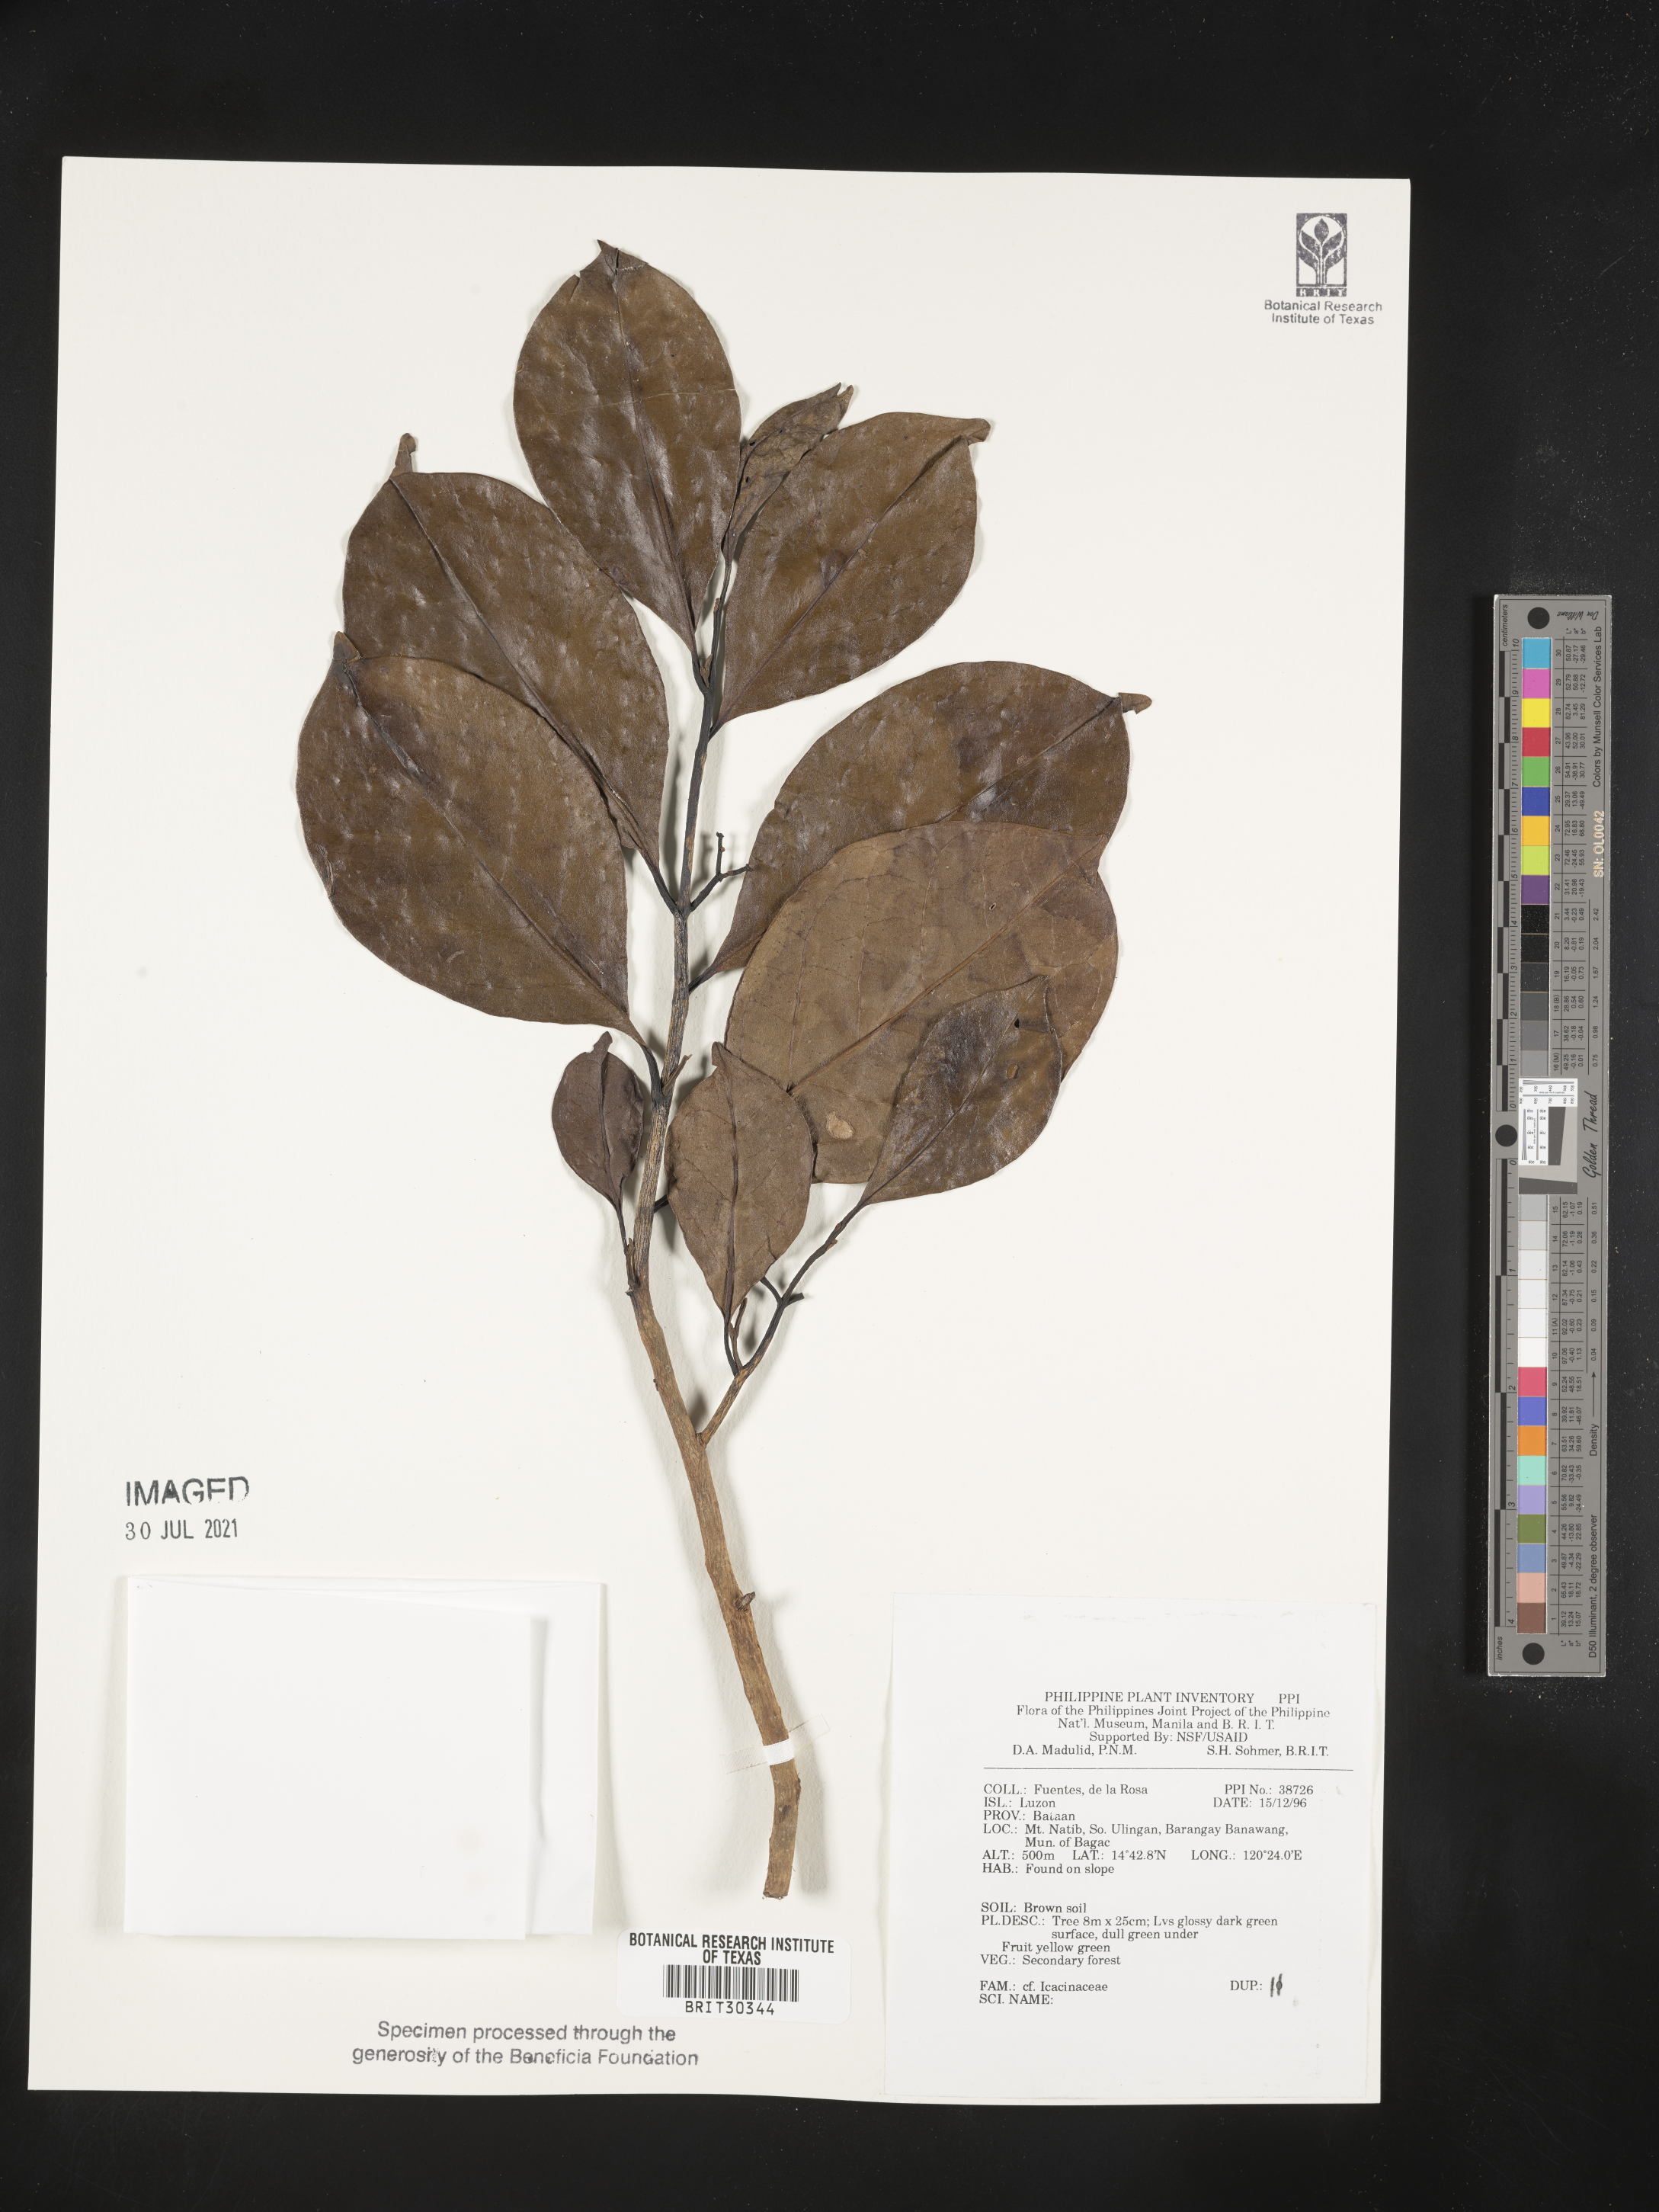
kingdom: Plantae
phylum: Tracheophyta
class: Magnoliopsida
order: Icacinales
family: Icacinaceae
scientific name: Icacinaceae
